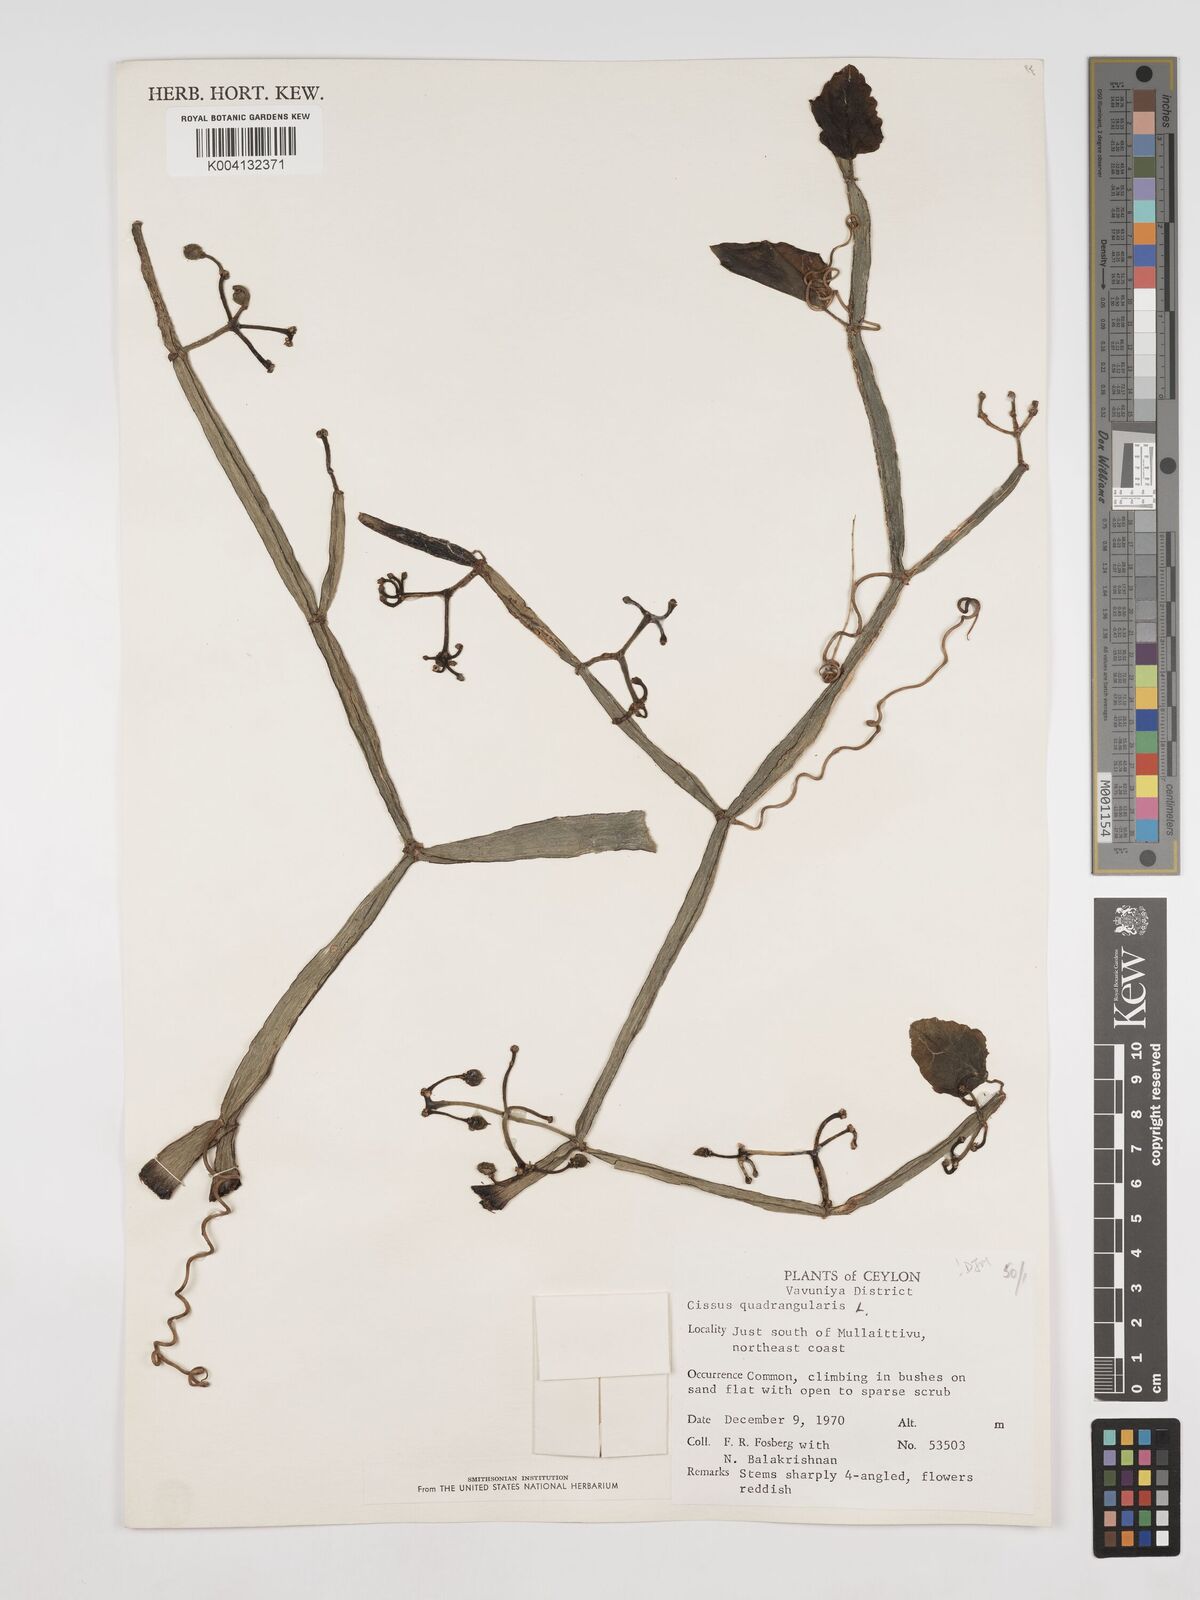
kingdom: Plantae
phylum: Tracheophyta
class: Magnoliopsida
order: Vitales
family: Vitaceae
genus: Cissus
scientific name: Cissus quadrangularis
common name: Veldt-grape
